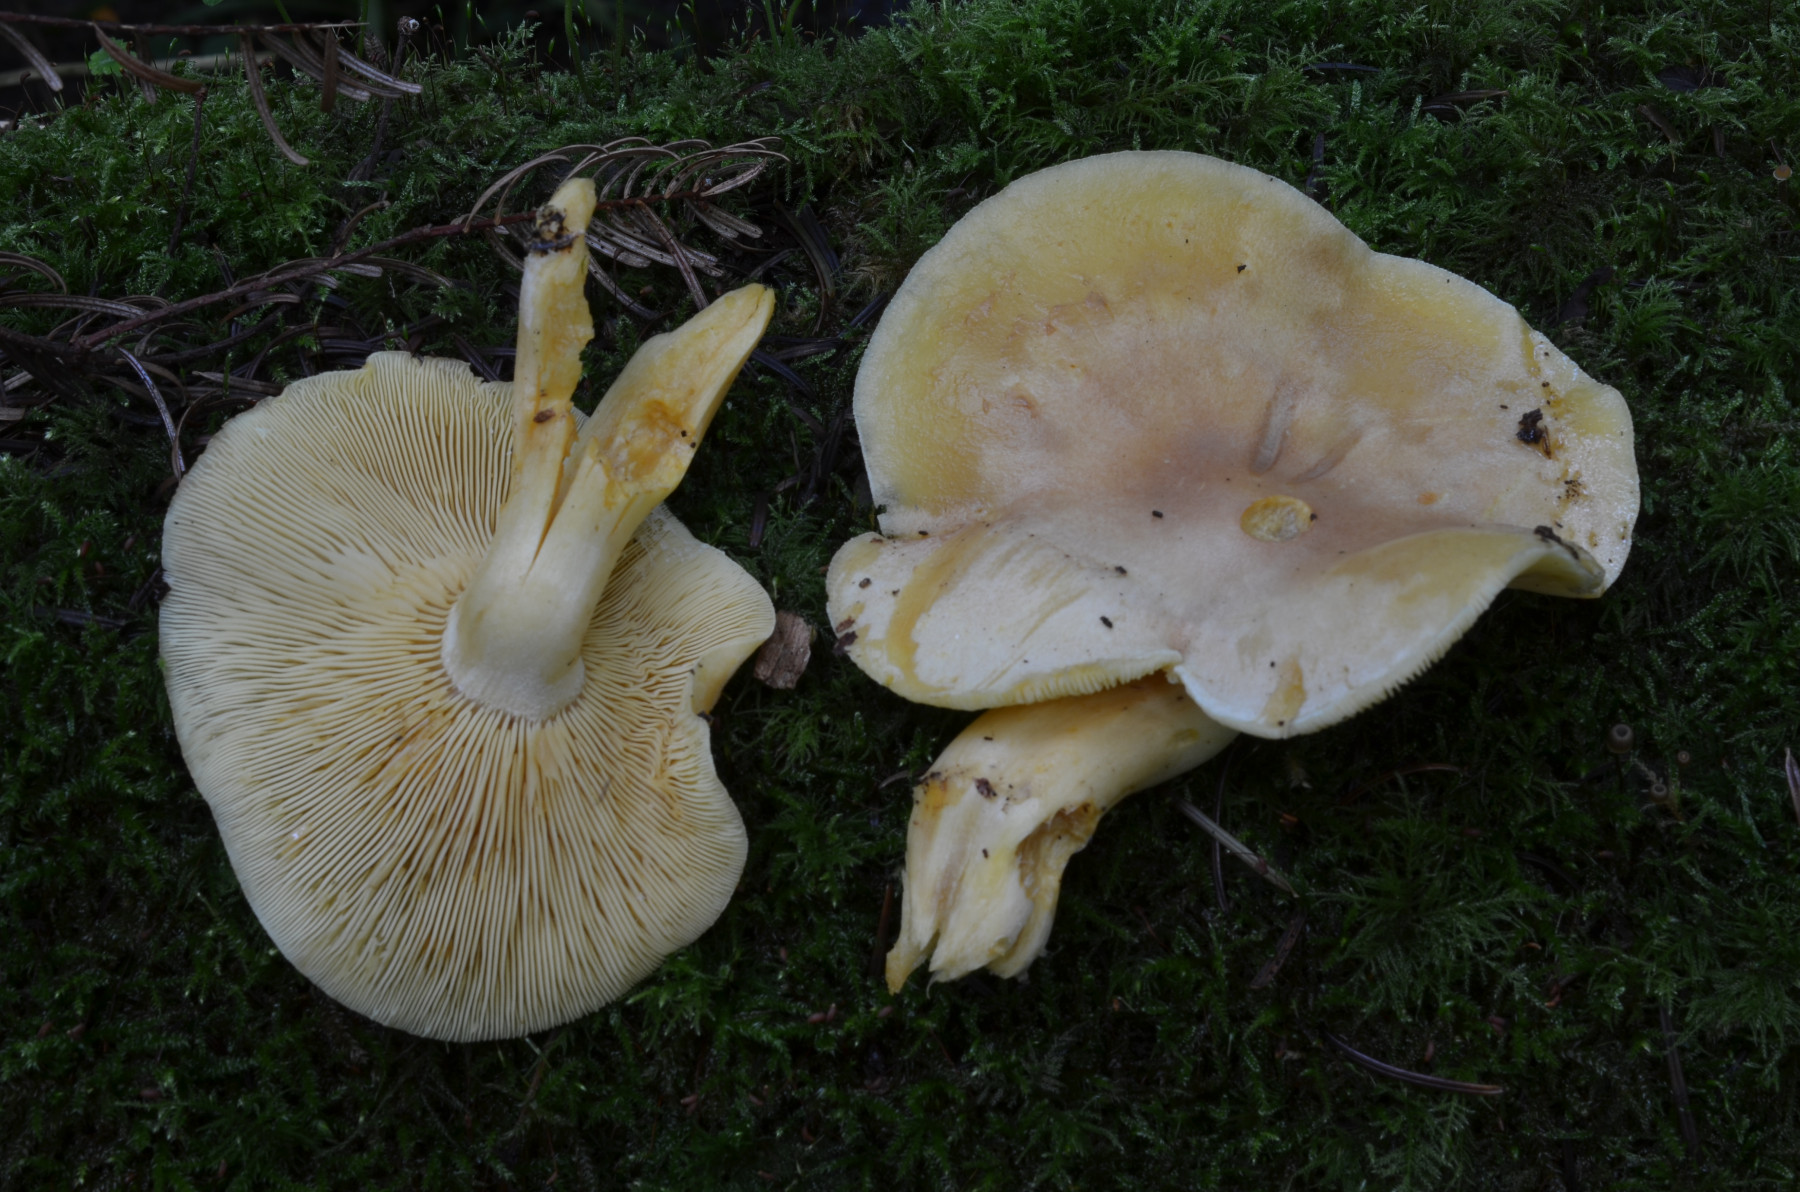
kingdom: Fungi
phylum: Basidiomycota
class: Agaricomycetes
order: Agaricales
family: Tricholomataceae
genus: Tricholomopsis
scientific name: Tricholomopsis
